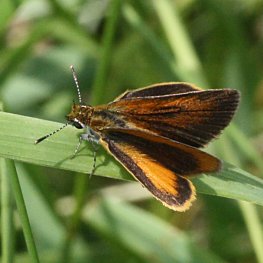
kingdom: Animalia
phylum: Arthropoda
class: Insecta
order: Lepidoptera
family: Hesperiidae
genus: Ancyloxypha
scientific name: Ancyloxypha numitor
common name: Least Skipper
